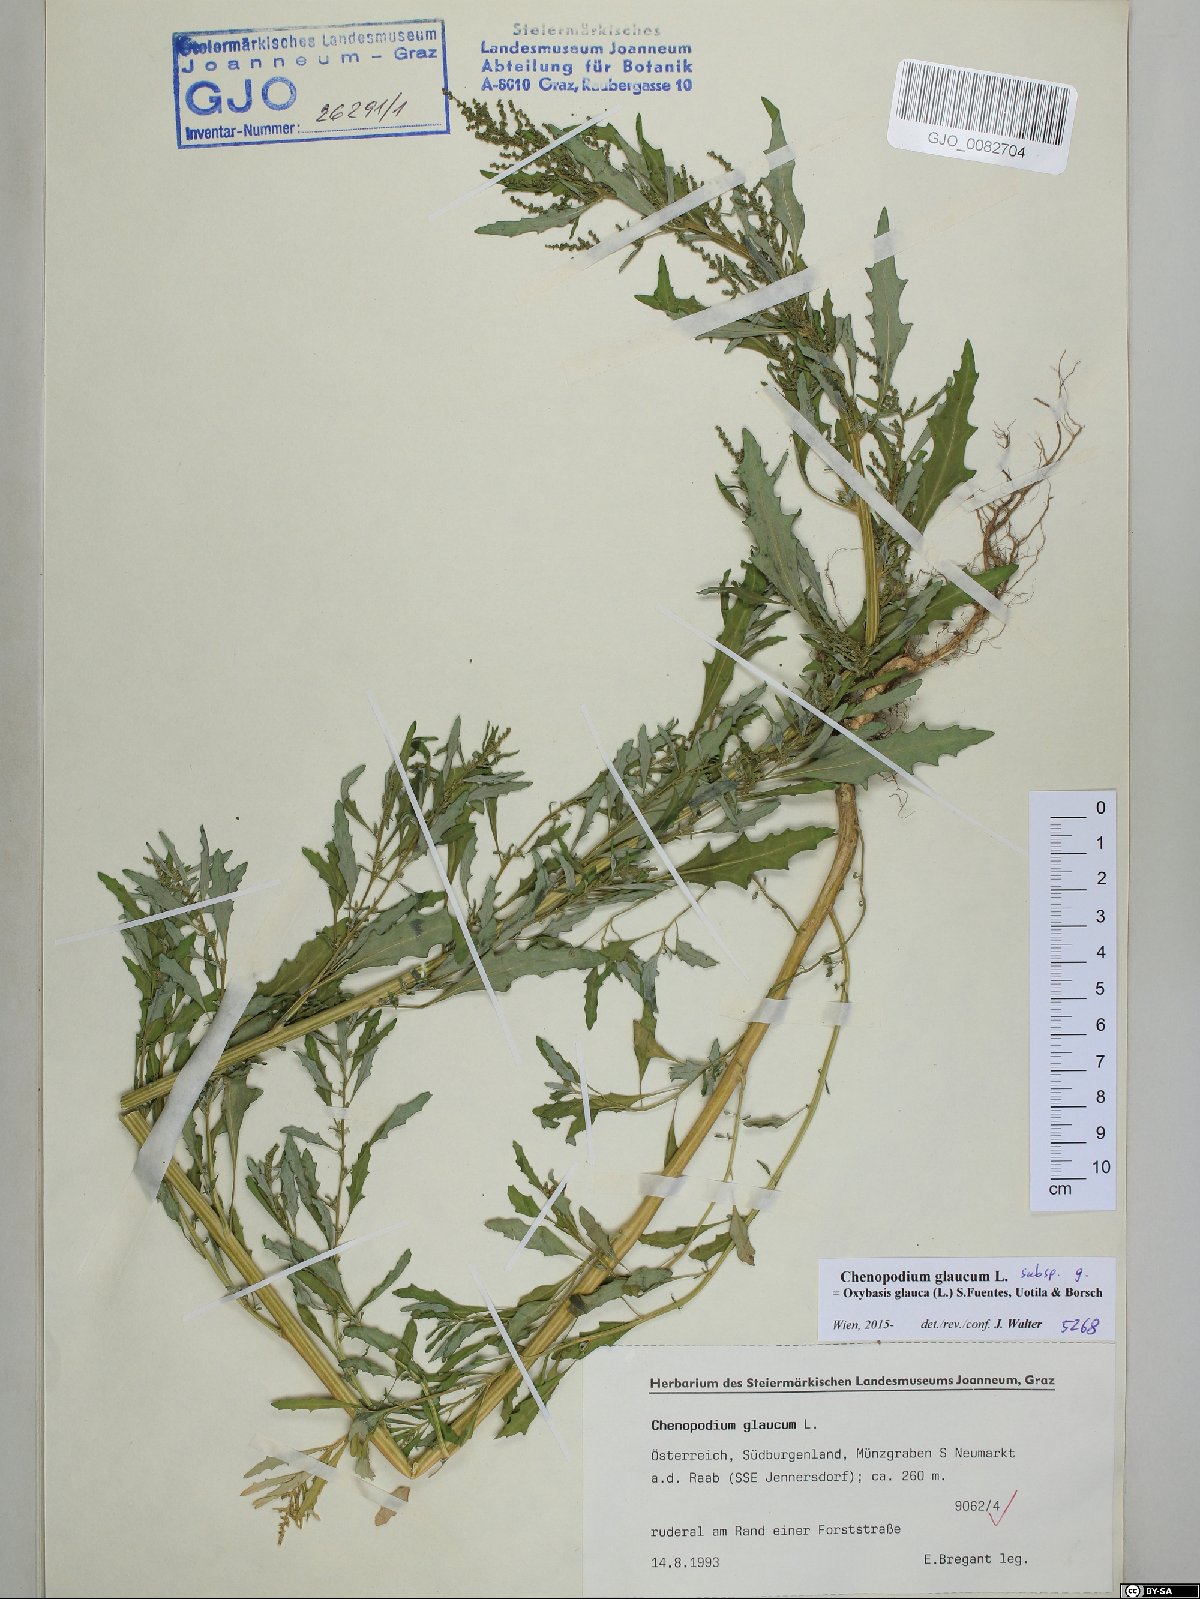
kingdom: Plantae
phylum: Tracheophyta
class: Magnoliopsida
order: Caryophyllales
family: Amaranthaceae
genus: Oxybasis
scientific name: Oxybasis glauca
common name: Glaucous goosefoot
